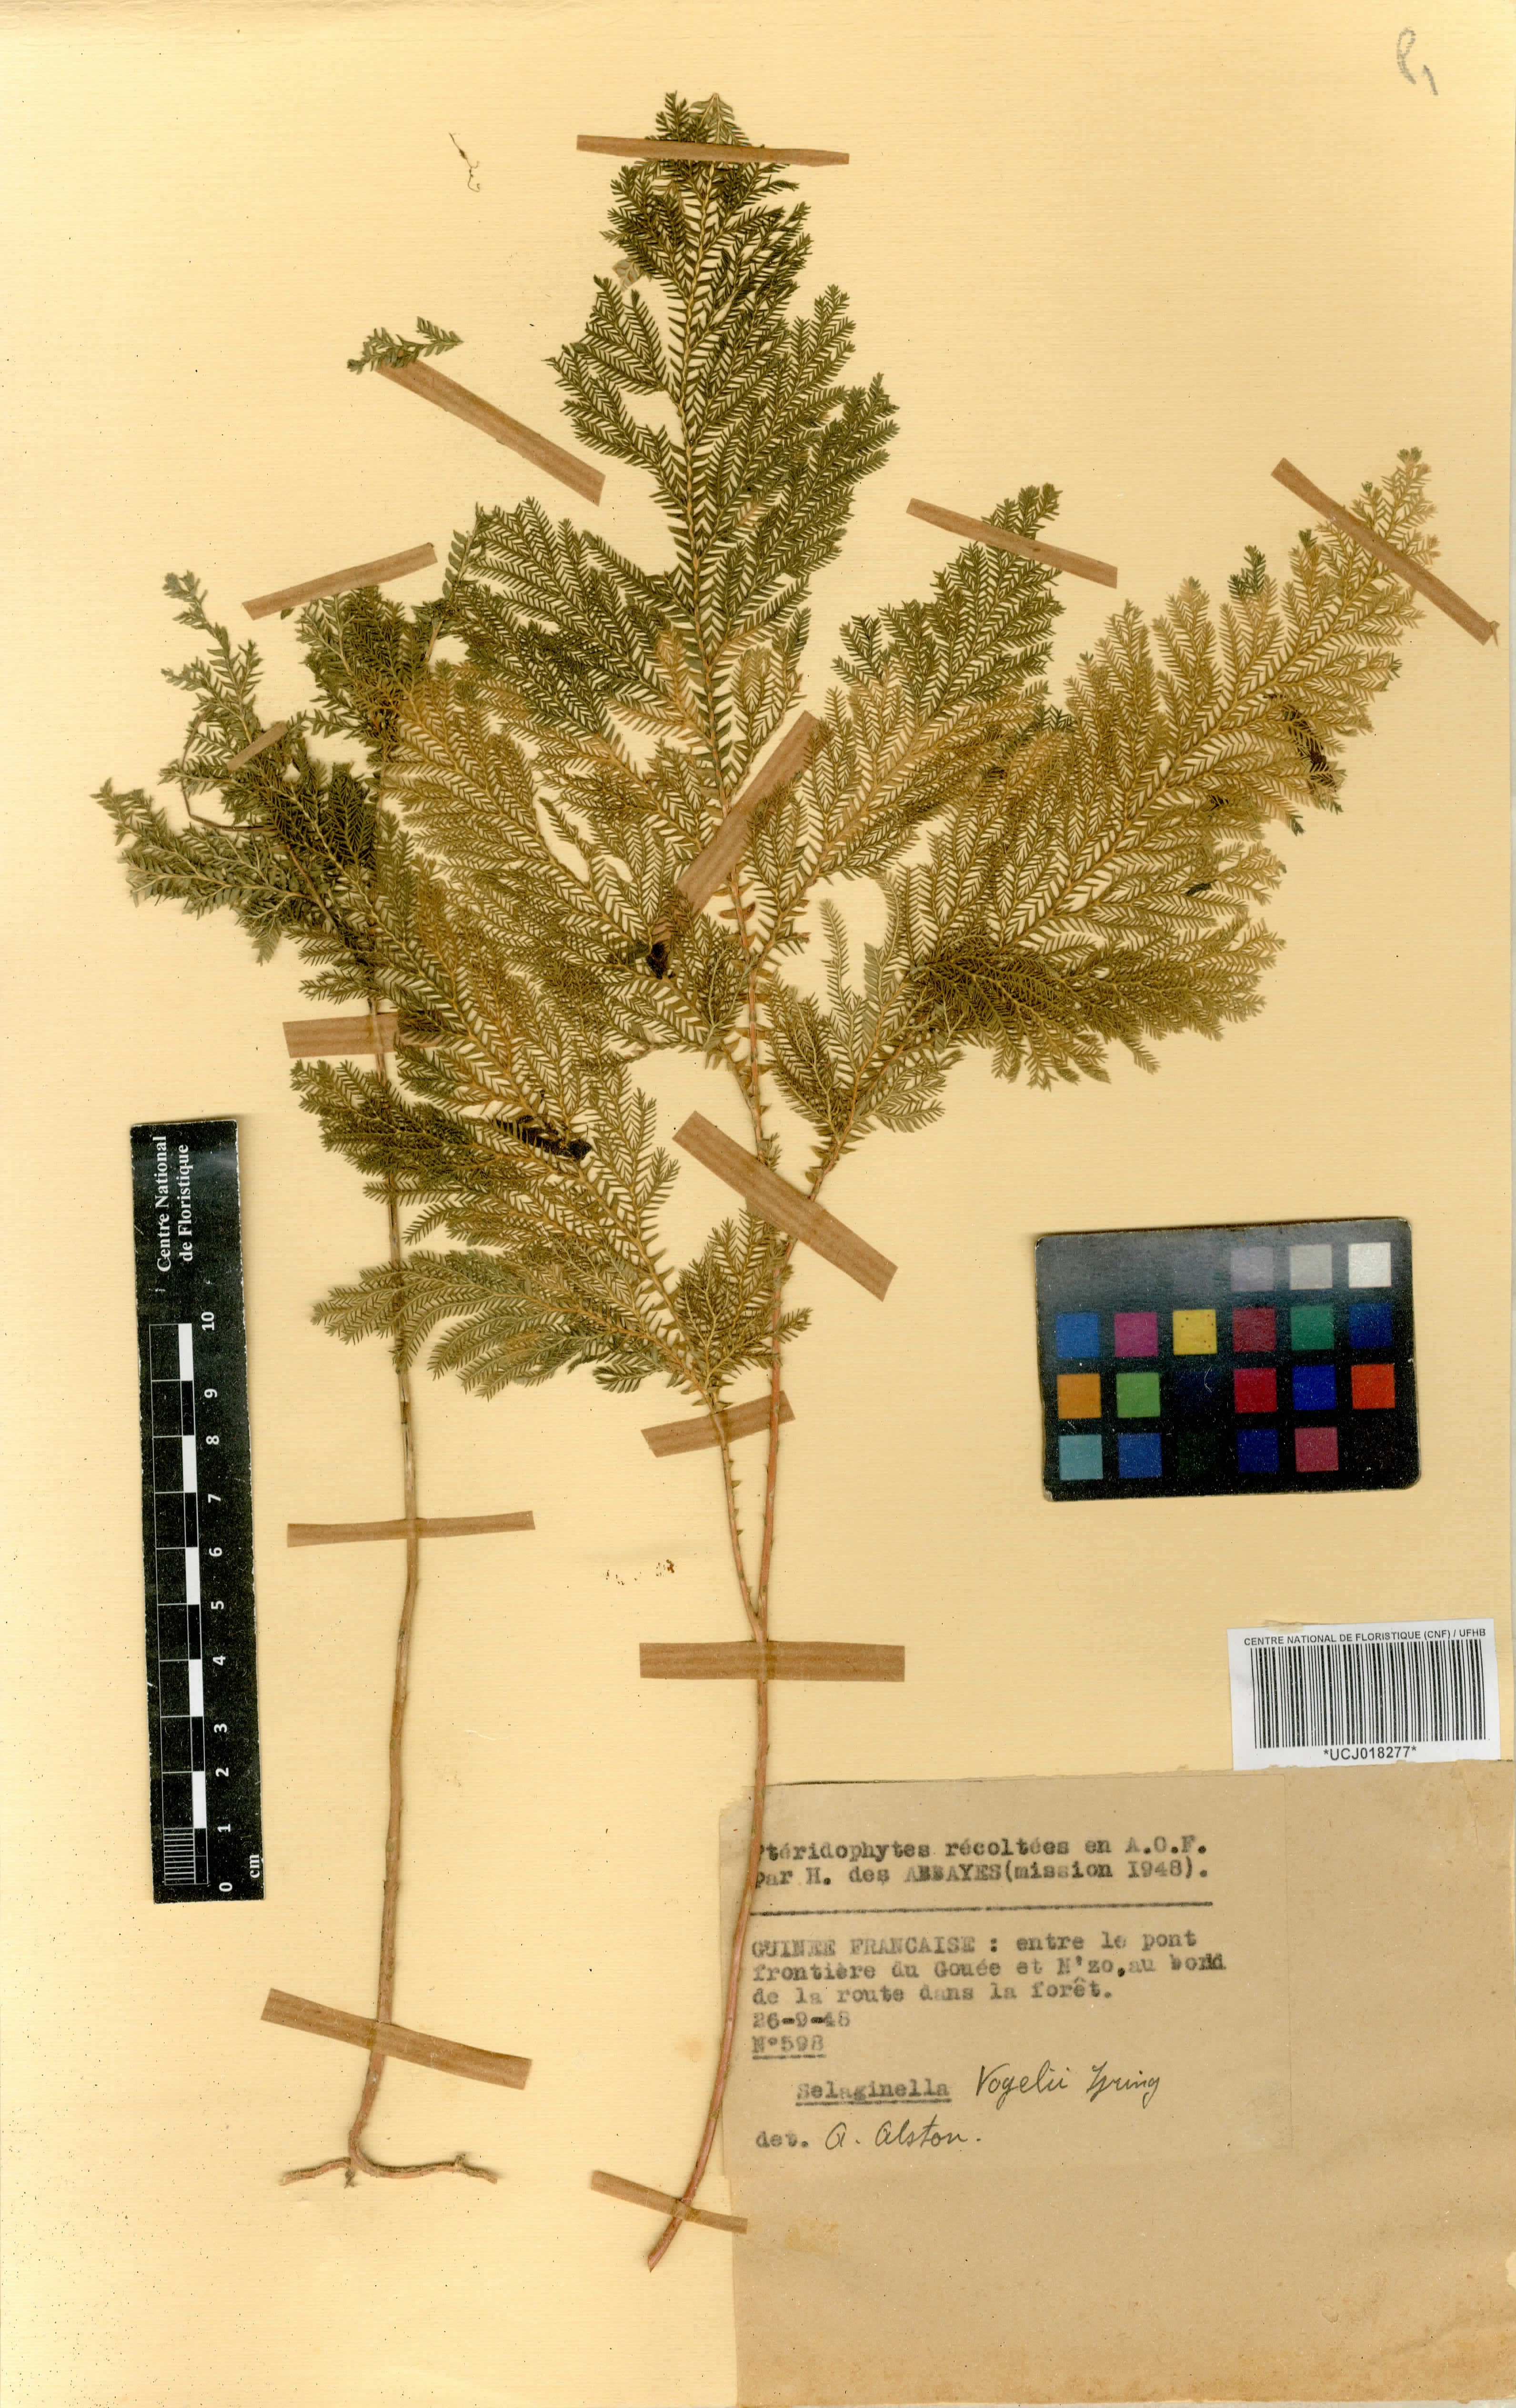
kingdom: Plantae
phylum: Tracheophyta
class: Lycopodiopsida
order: Selaginellales
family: Selaginellaceae
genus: Selaginella
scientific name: Selaginella vogelii
